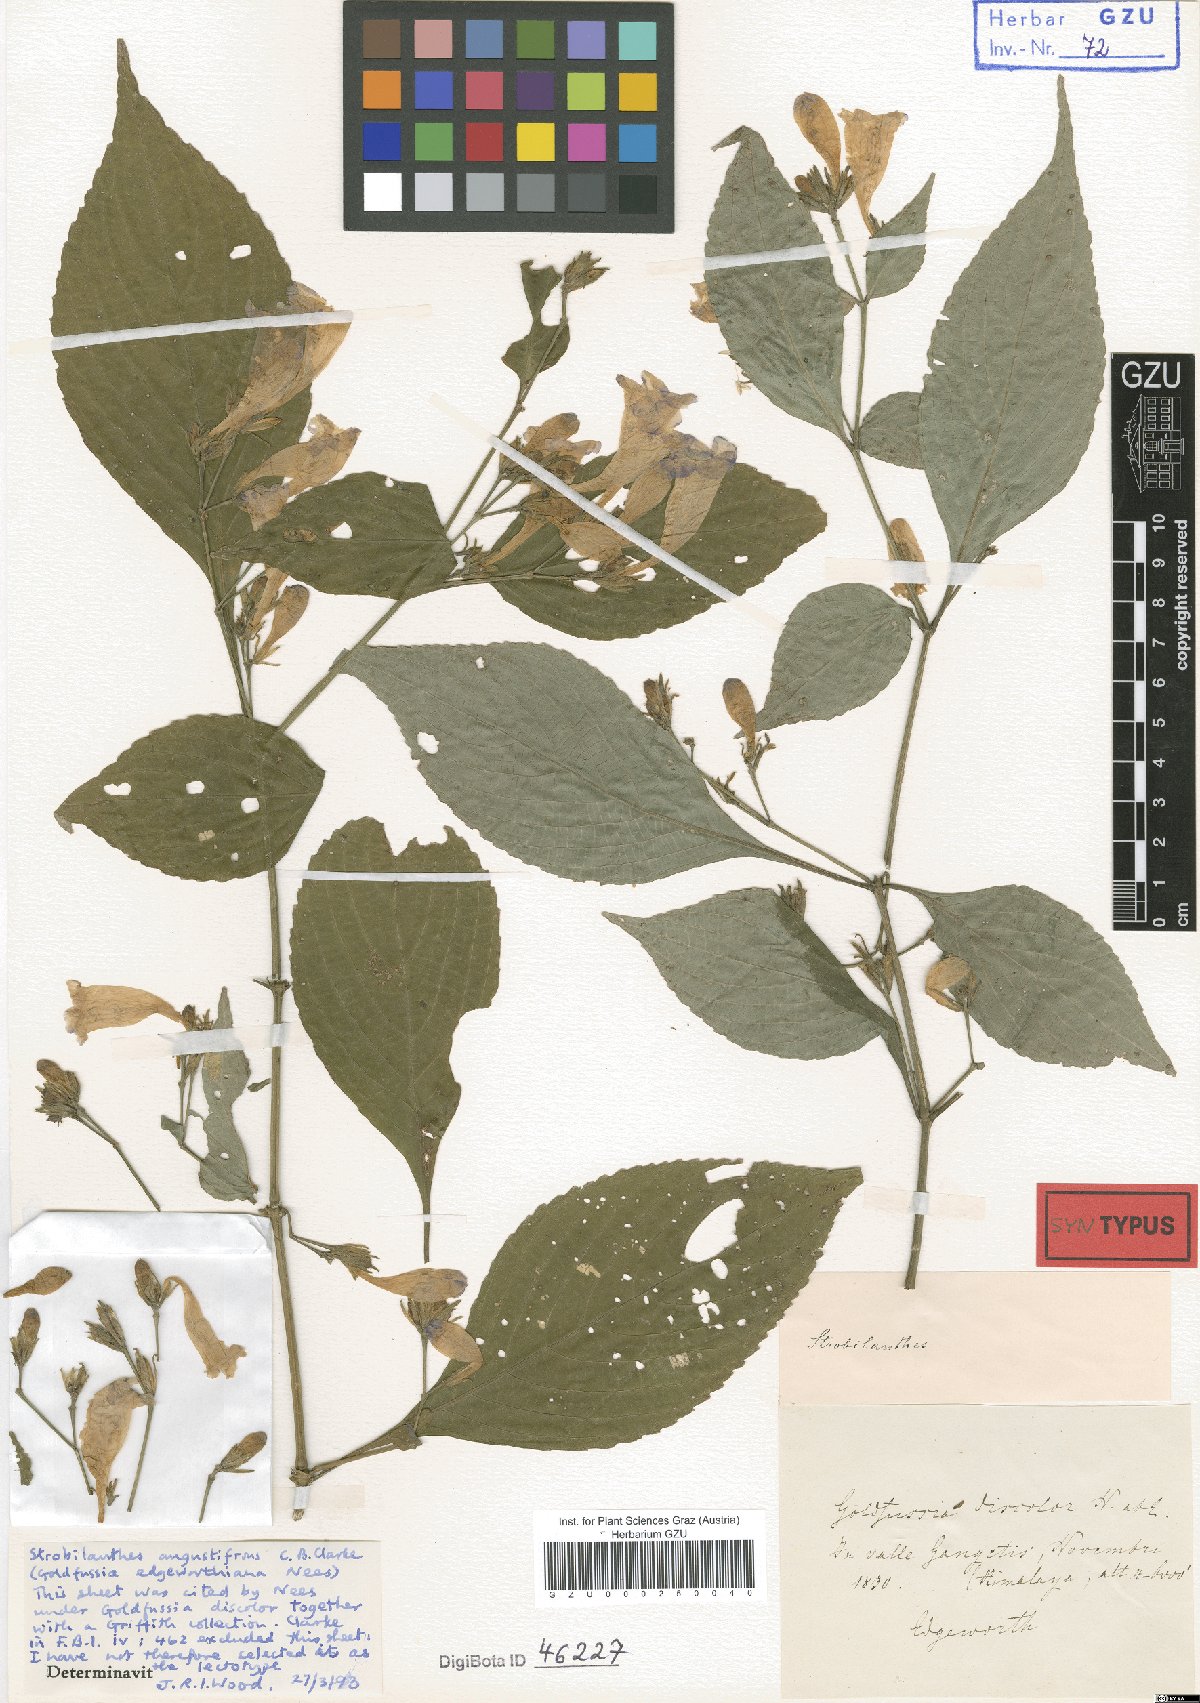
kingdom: Plantae
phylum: Tracheophyta
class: Magnoliopsida
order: Lamiales
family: Acanthaceae
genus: Strobilanthes
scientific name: Strobilanthes discolor
